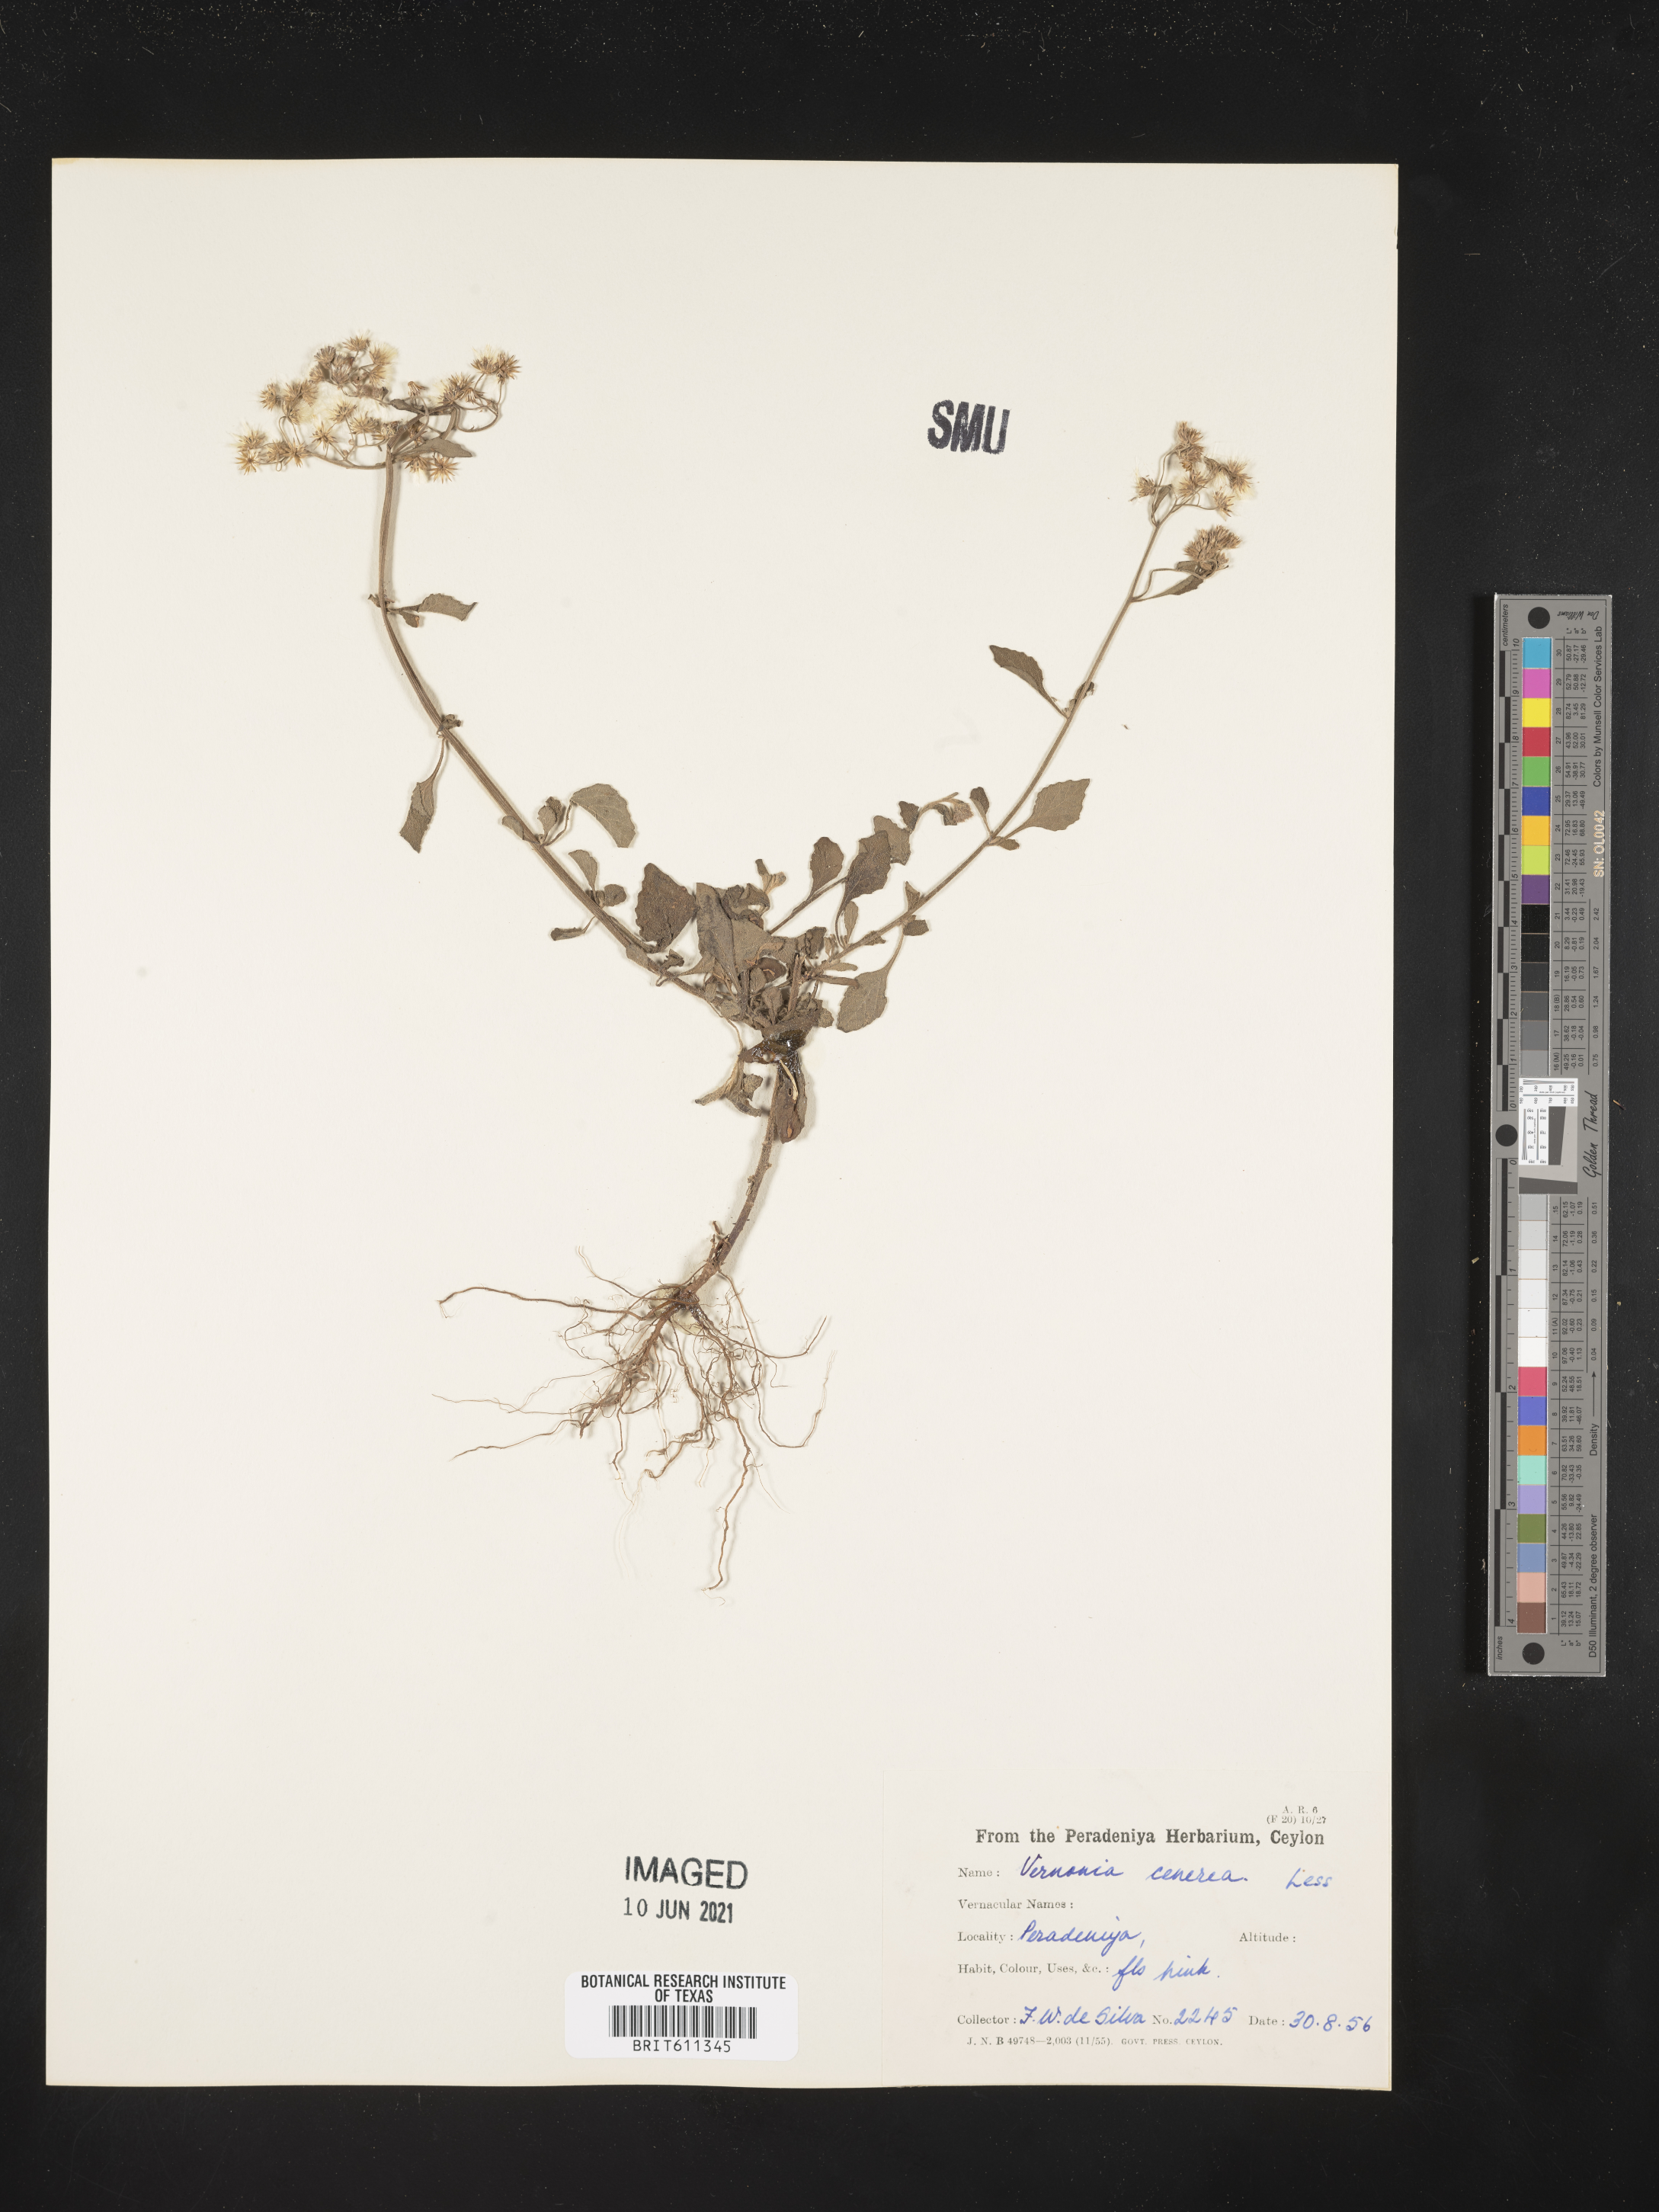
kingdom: Plantae
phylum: Tracheophyta
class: Magnoliopsida
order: Asterales
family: Asteraceae
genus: Cyanthillium
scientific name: Cyanthillium cinereum
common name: Little ironweed
